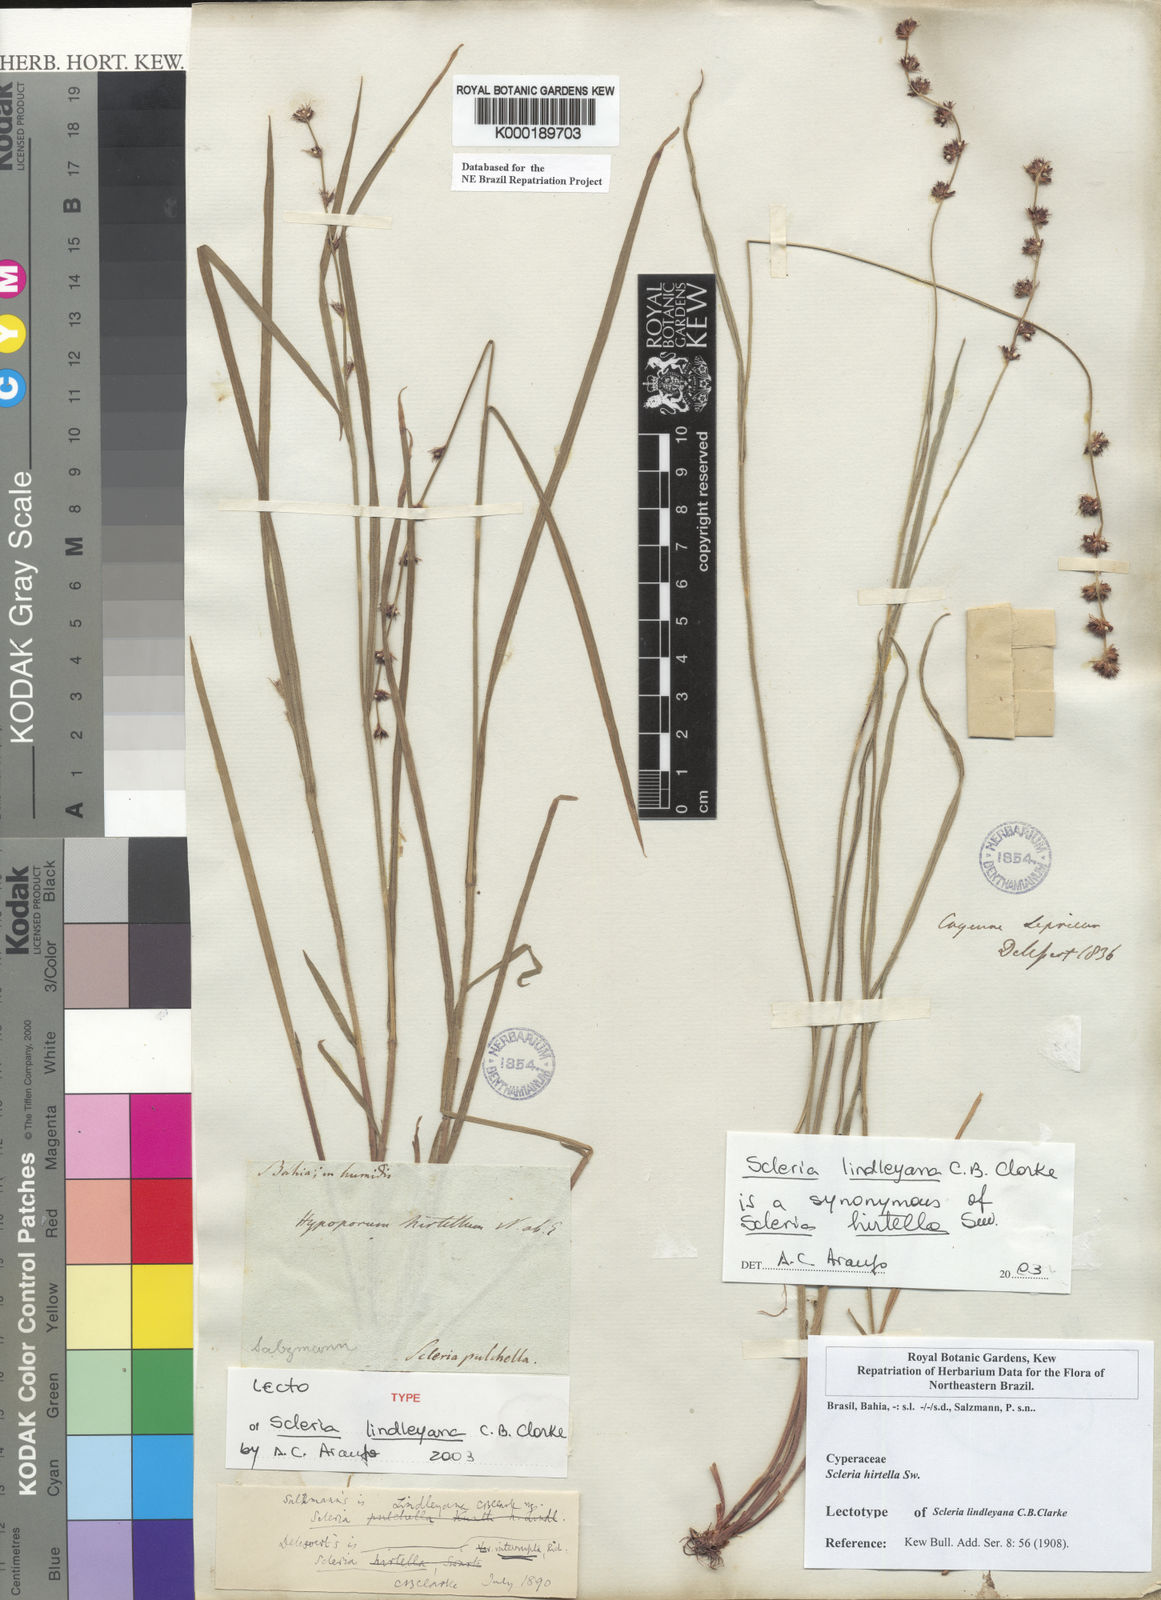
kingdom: Plantae
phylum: Tracheophyta
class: Liliopsida
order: Poales
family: Cyperaceae
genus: Scleria
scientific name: Scleria hirtella
